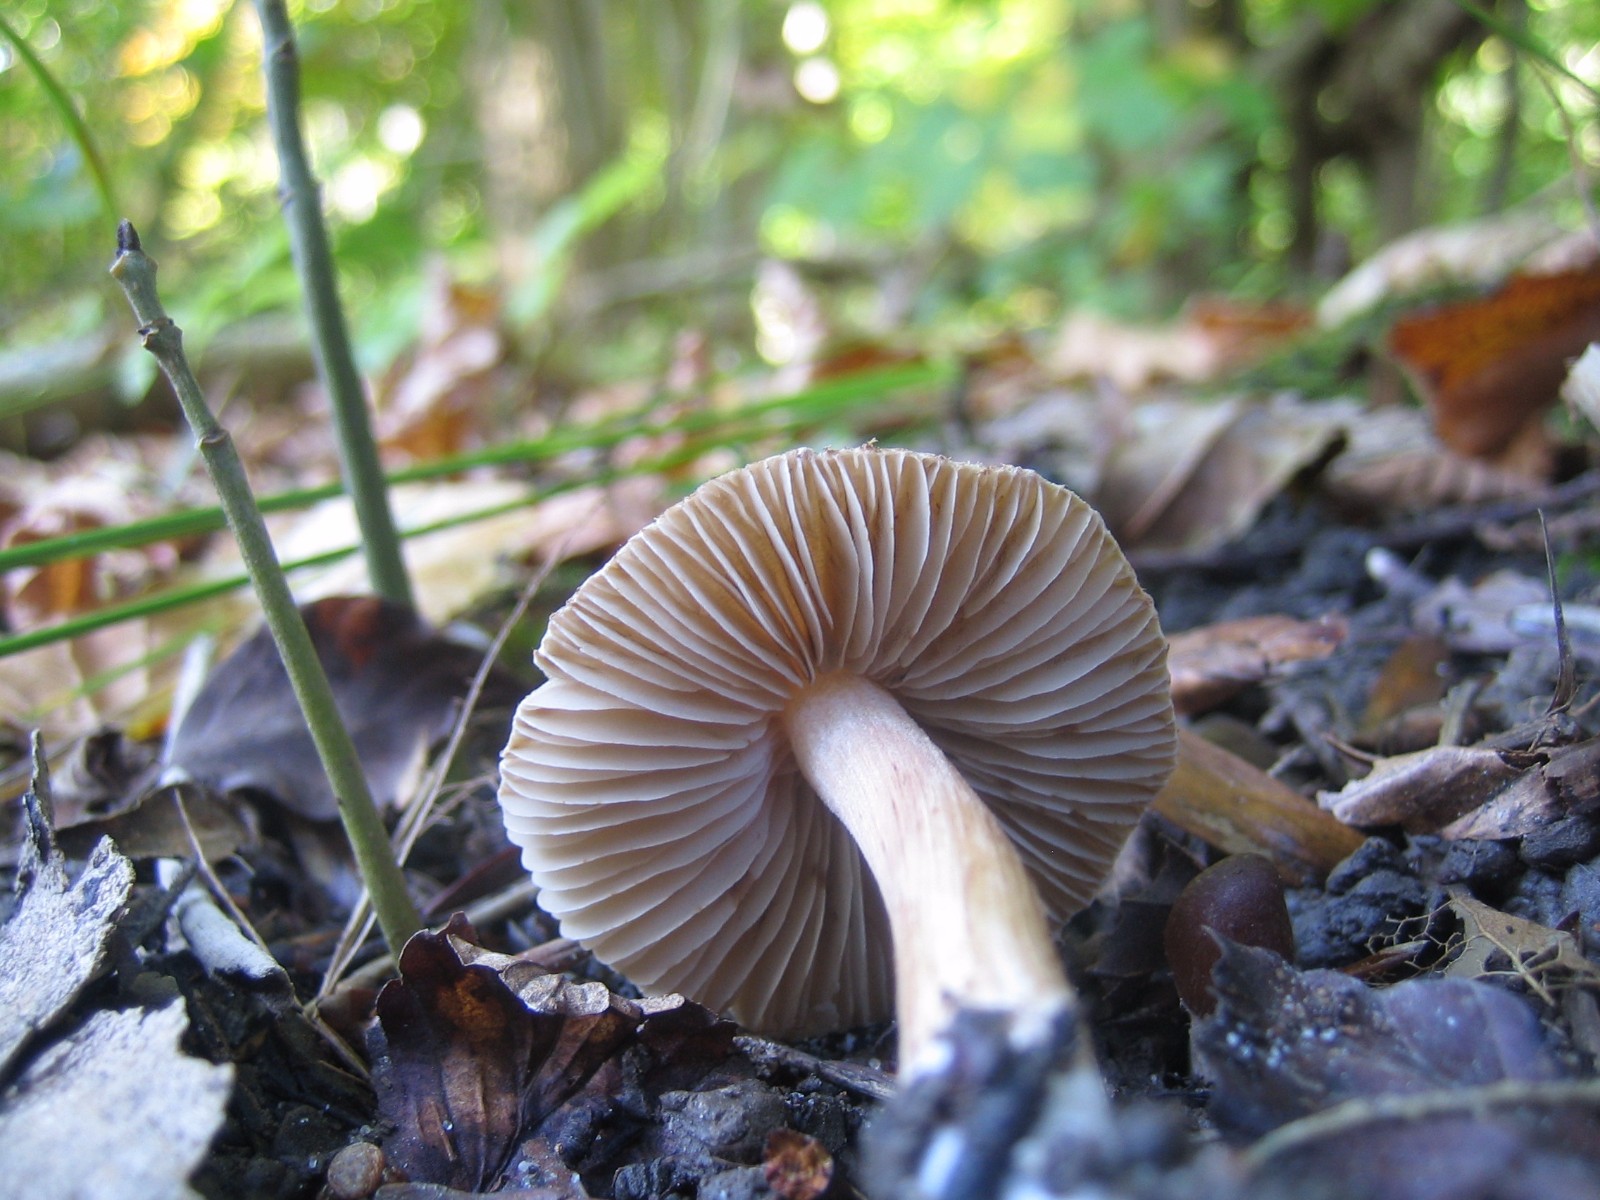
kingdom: Fungi
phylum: Basidiomycota
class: Agaricomycetes
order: Agaricales
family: Inocybaceae
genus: Inocybe
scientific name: Inocybe
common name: trævlhat
